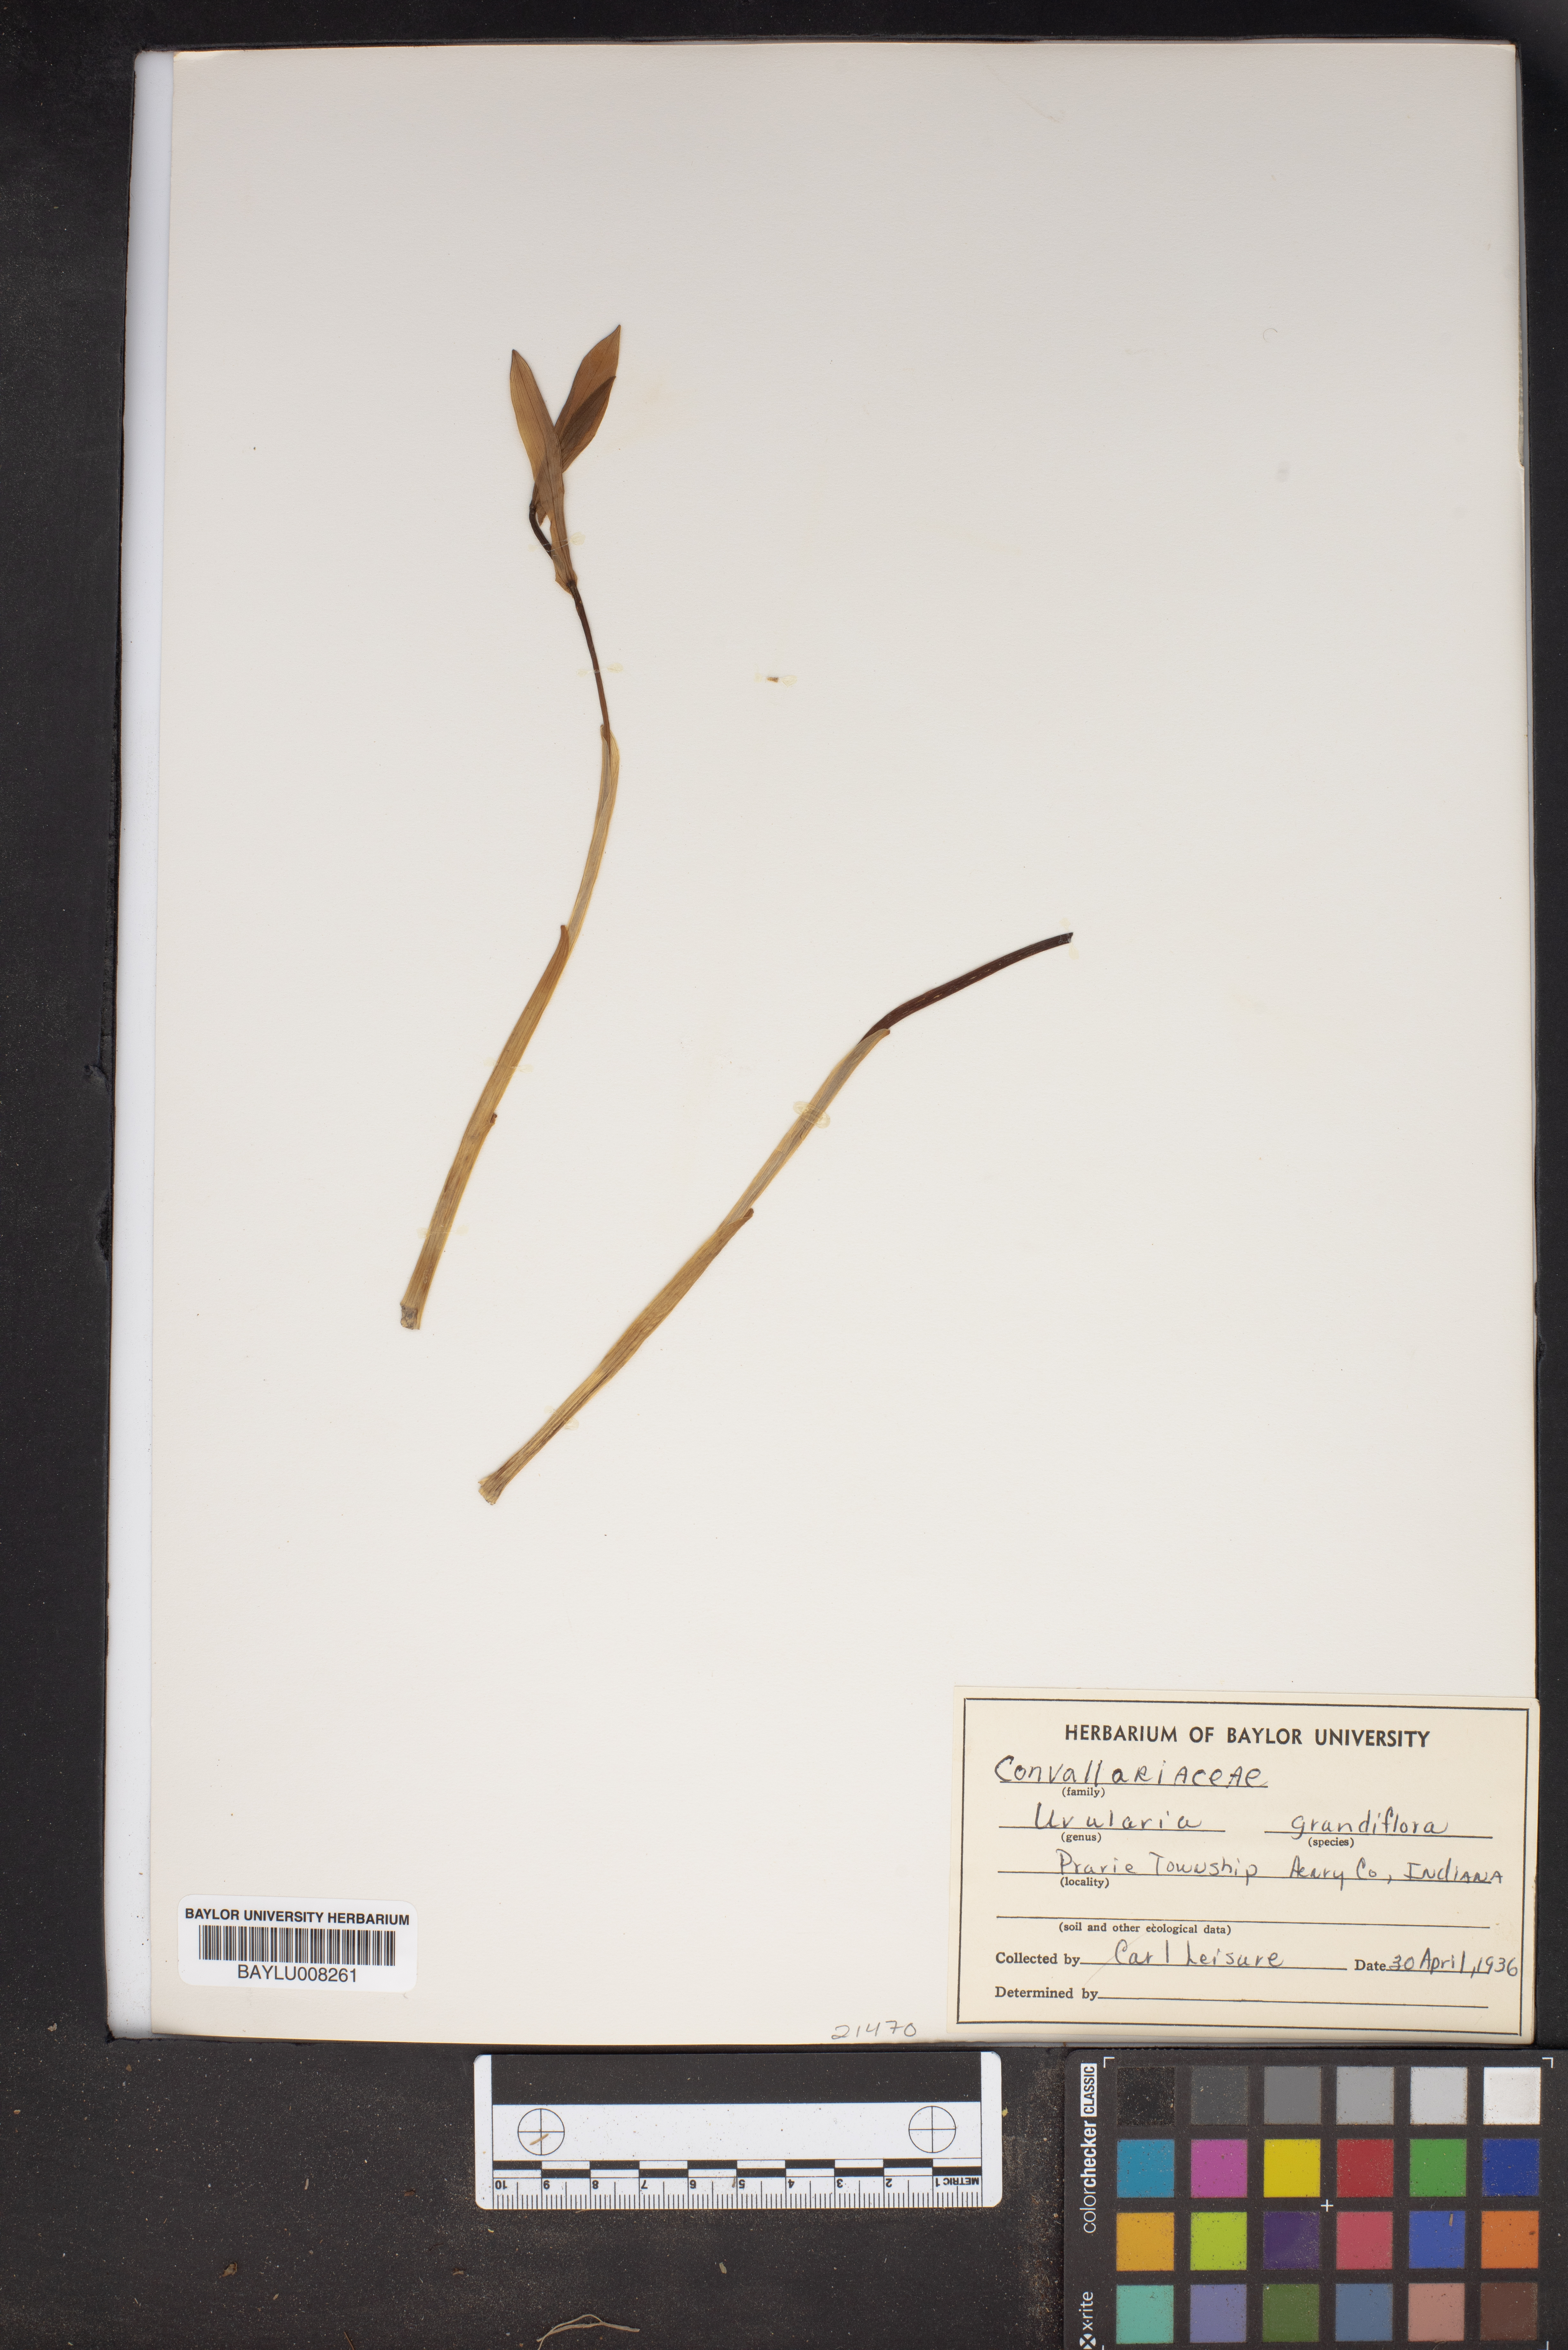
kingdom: Plantae
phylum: Tracheophyta
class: Magnoliopsida
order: Magnoliales
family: Annonaceae
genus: Uvaria
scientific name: Uvaria grandiflora
